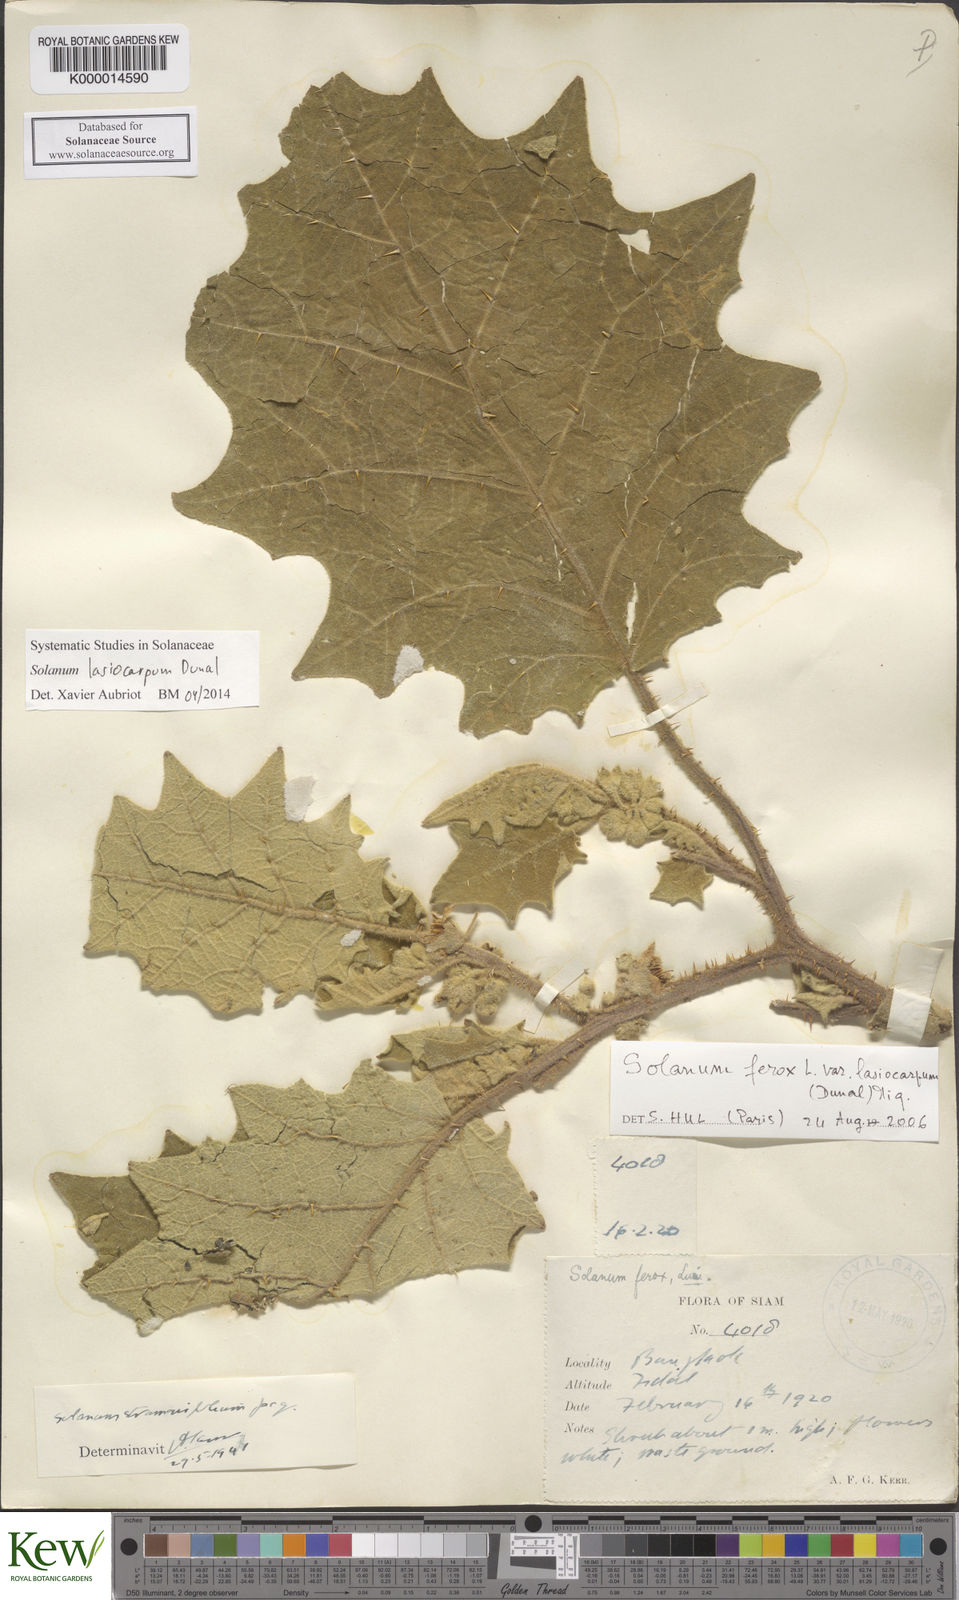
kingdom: Plantae
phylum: Tracheophyta
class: Magnoliopsida
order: Solanales
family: Solanaceae
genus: Solanum
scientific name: Solanum lasiocarpum
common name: Indian nightshade
